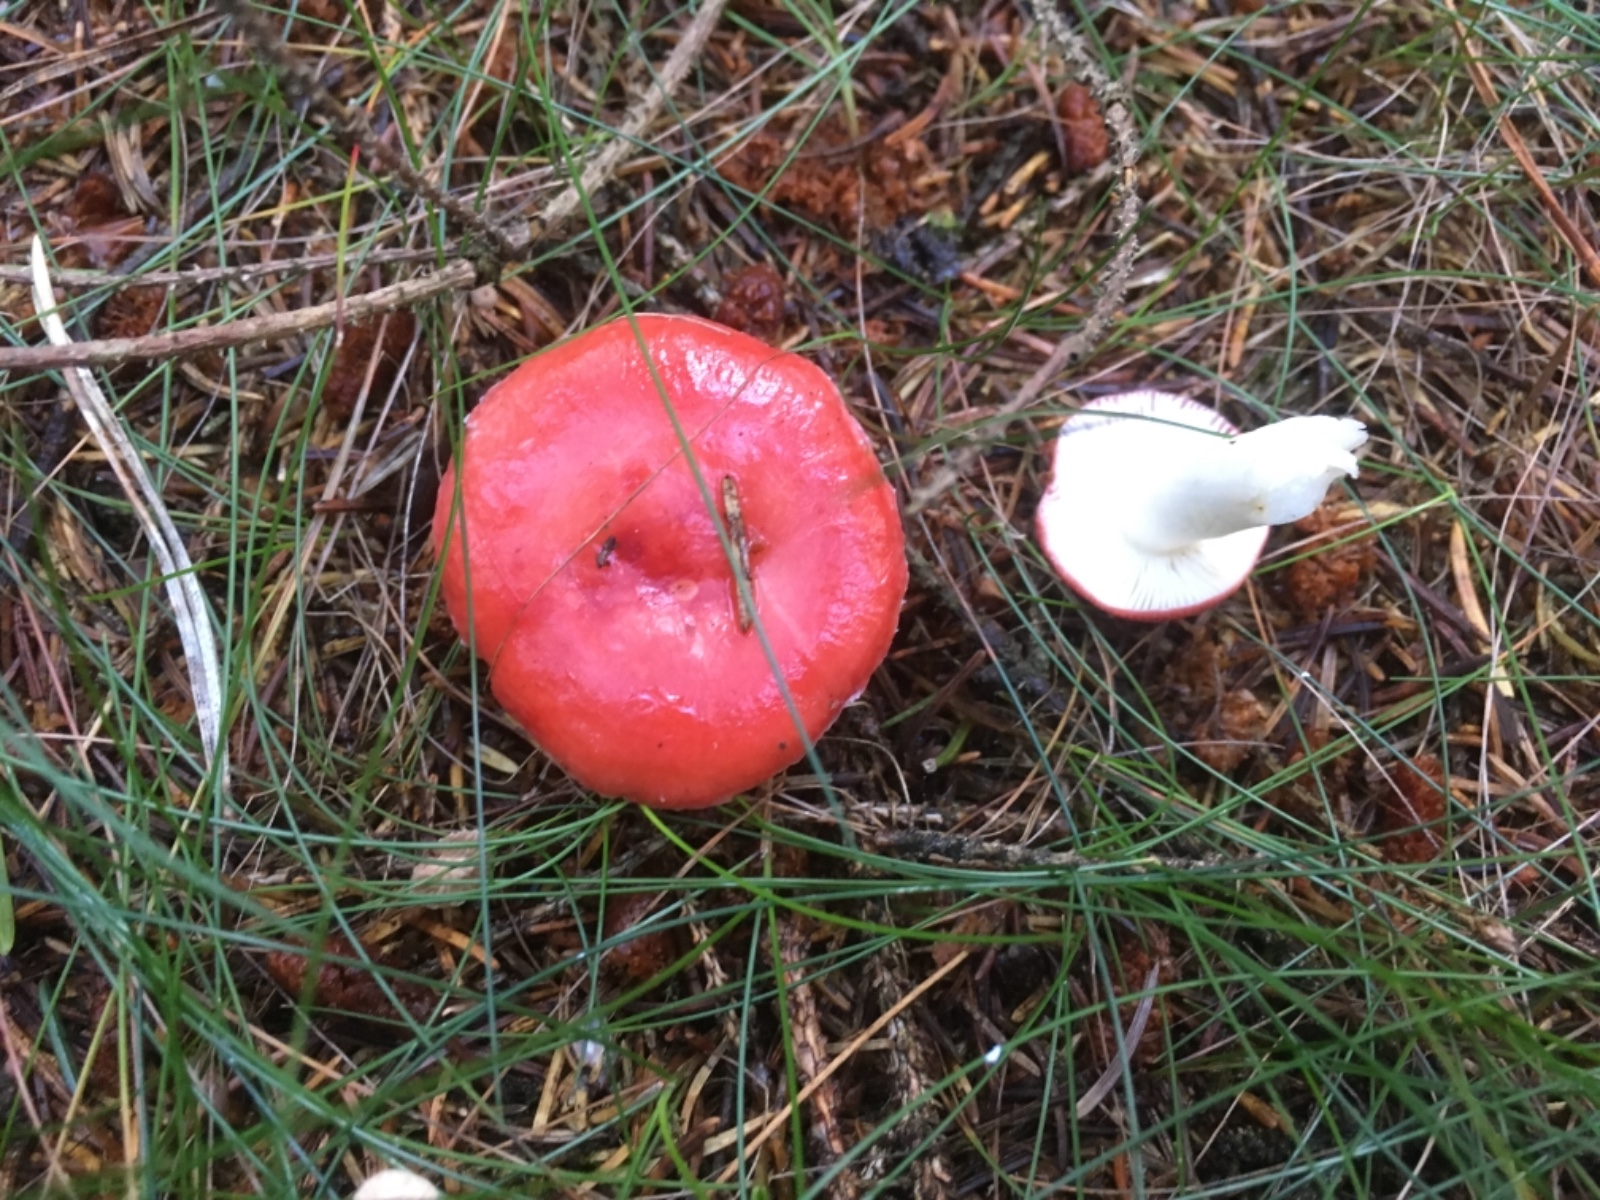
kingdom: Fungi
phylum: Basidiomycota
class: Agaricomycetes
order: Russulales
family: Russulaceae
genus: Russula
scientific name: Russula emetica
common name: stor gift-skørhat
